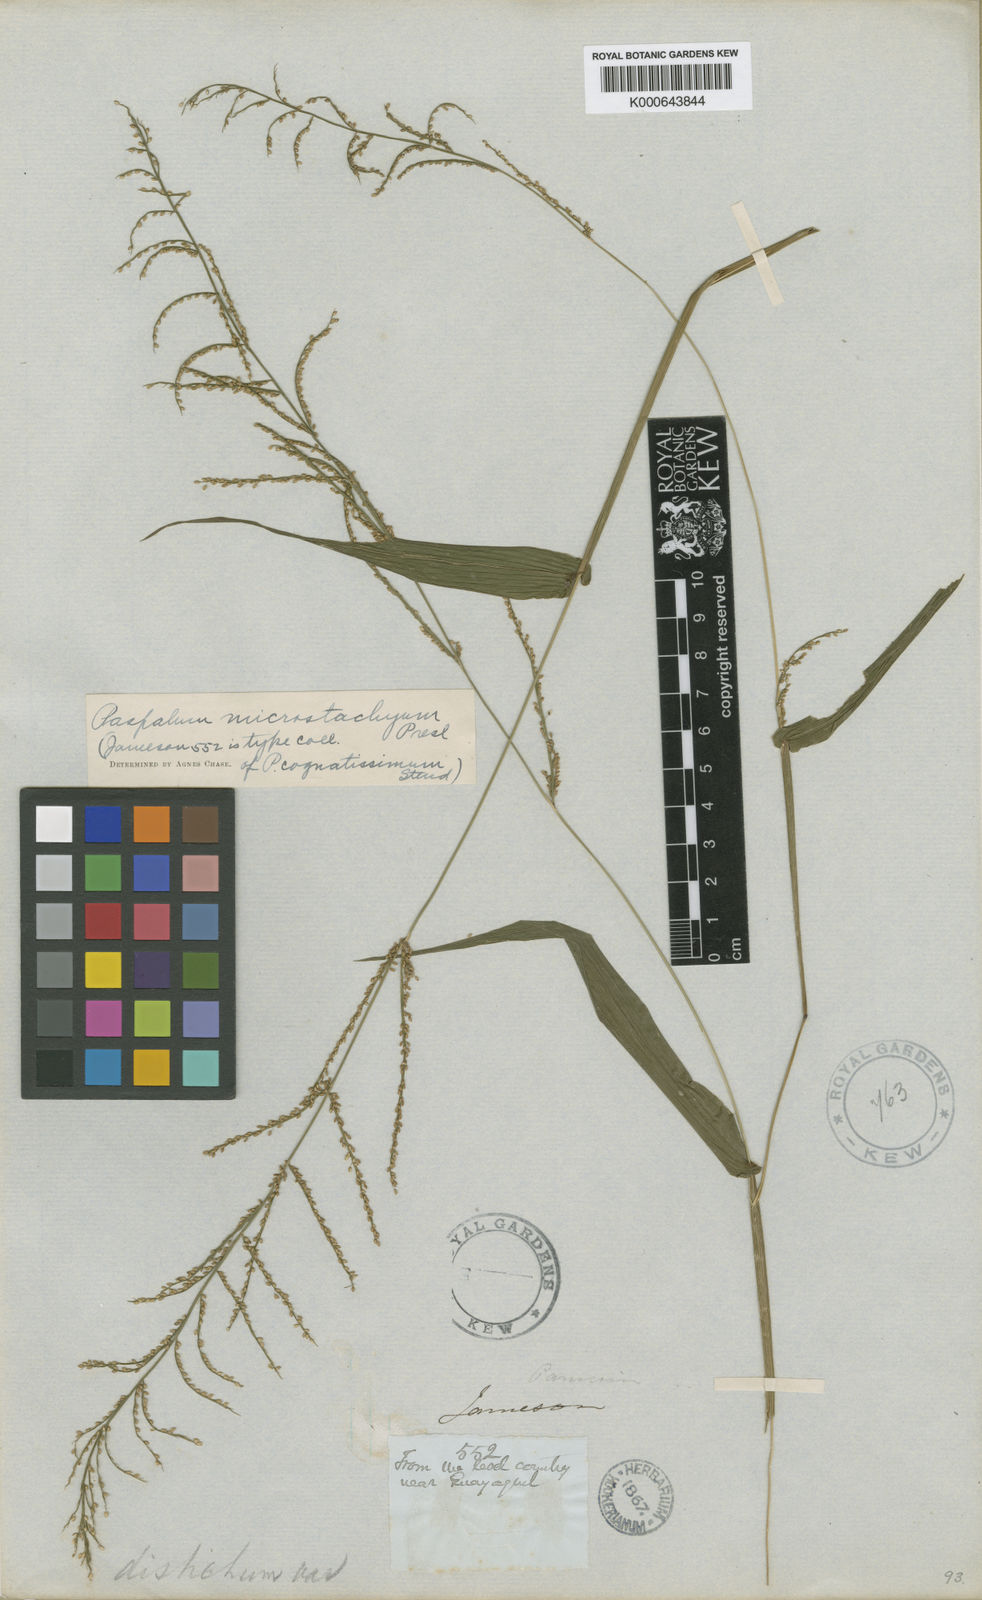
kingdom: Plantae
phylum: Tracheophyta
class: Liliopsida
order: Poales
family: Poaceae
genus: Paspalum
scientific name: Paspalum microstachyum
